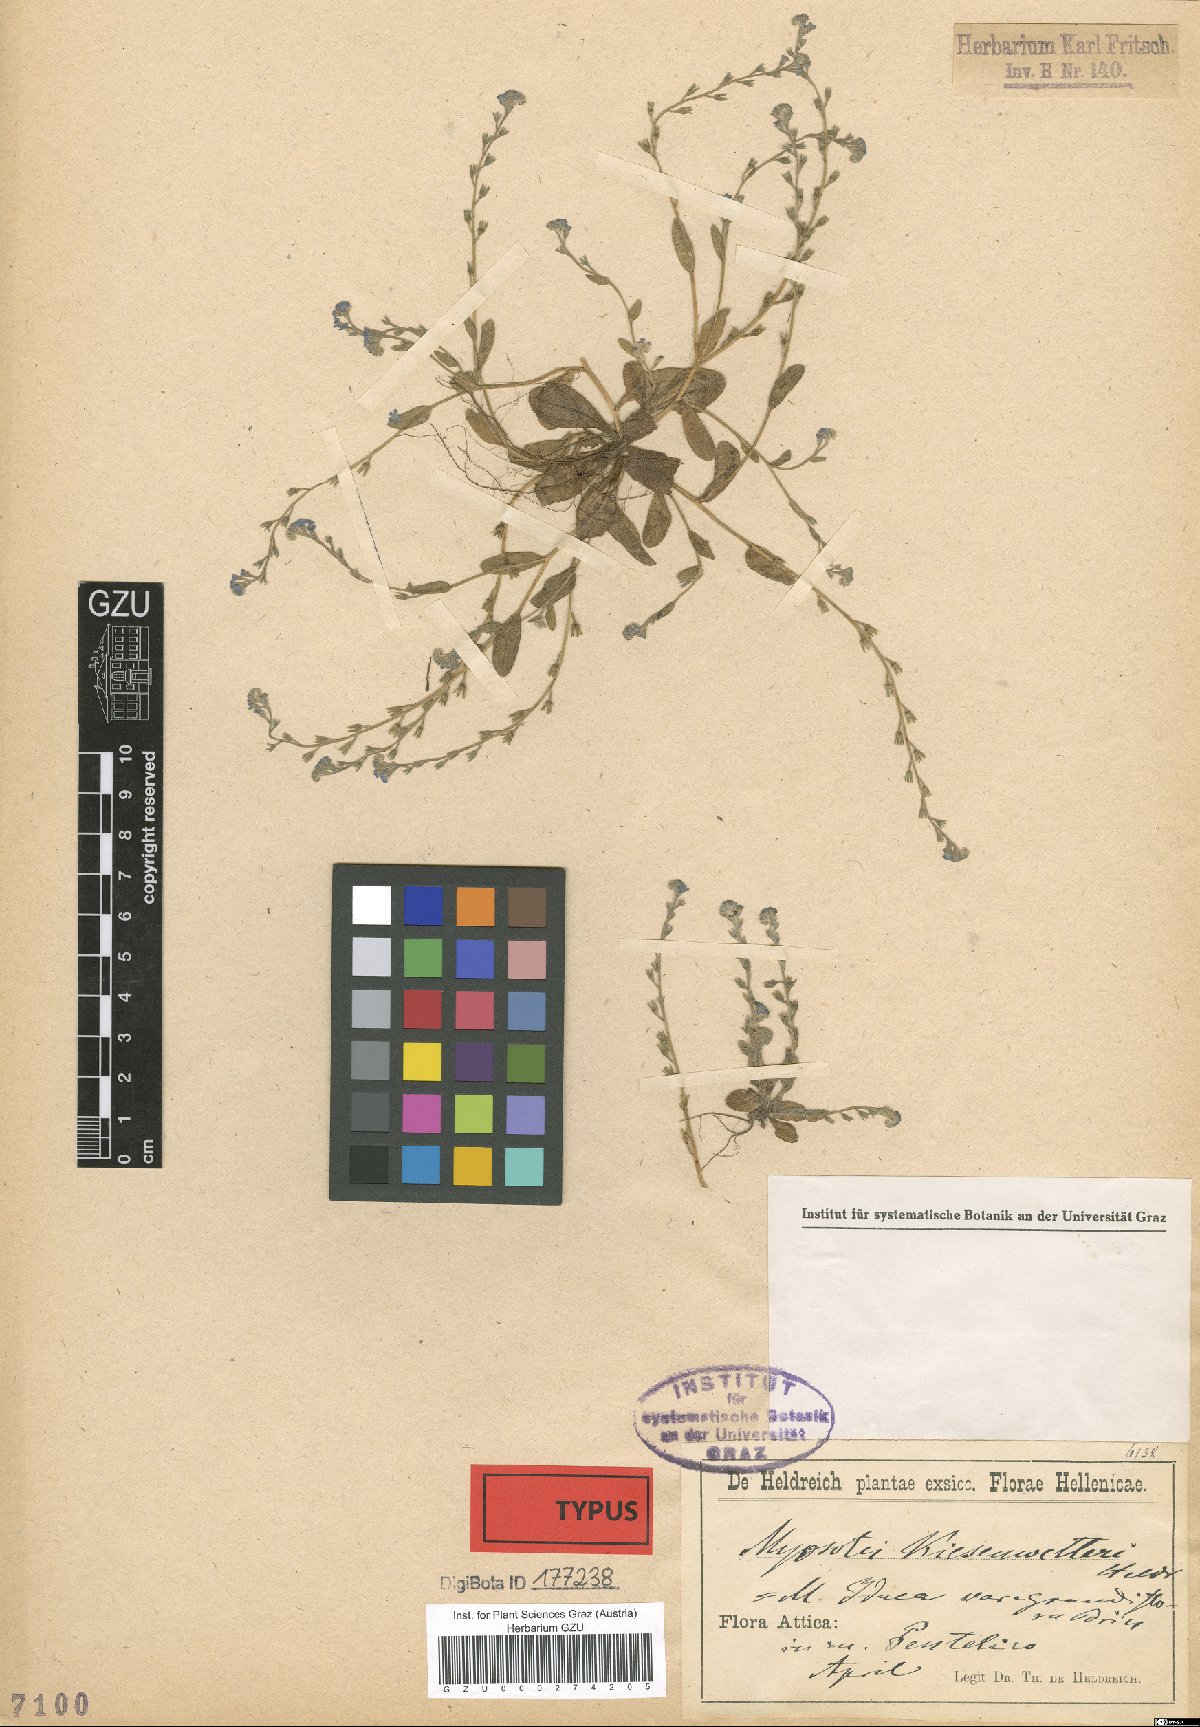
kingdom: Plantae
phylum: Tracheophyta
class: Magnoliopsida
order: Boraginales
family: Boraginaceae
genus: Myosotis
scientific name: Myosotis incrassata
